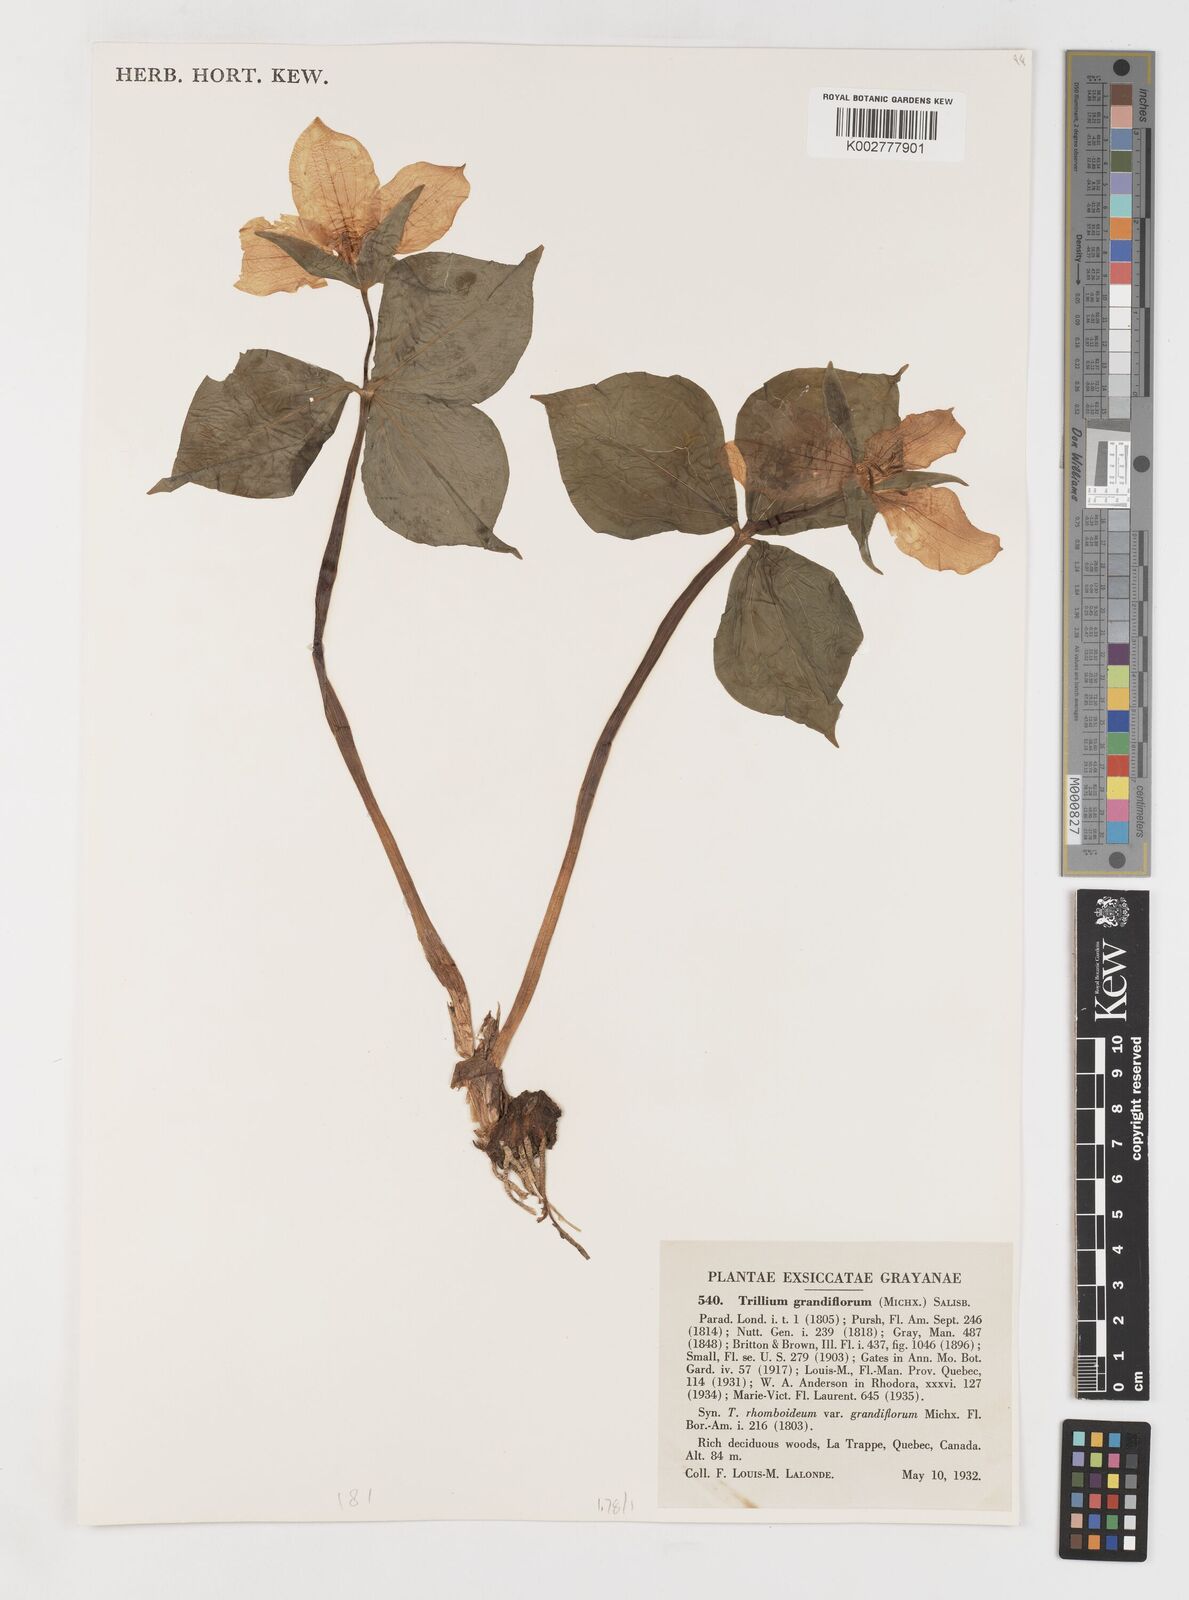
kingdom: Plantae
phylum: Tracheophyta
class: Liliopsida
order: Liliales
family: Melanthiaceae
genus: Trillium
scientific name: Trillium grandiflorum
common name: Great white trillium
